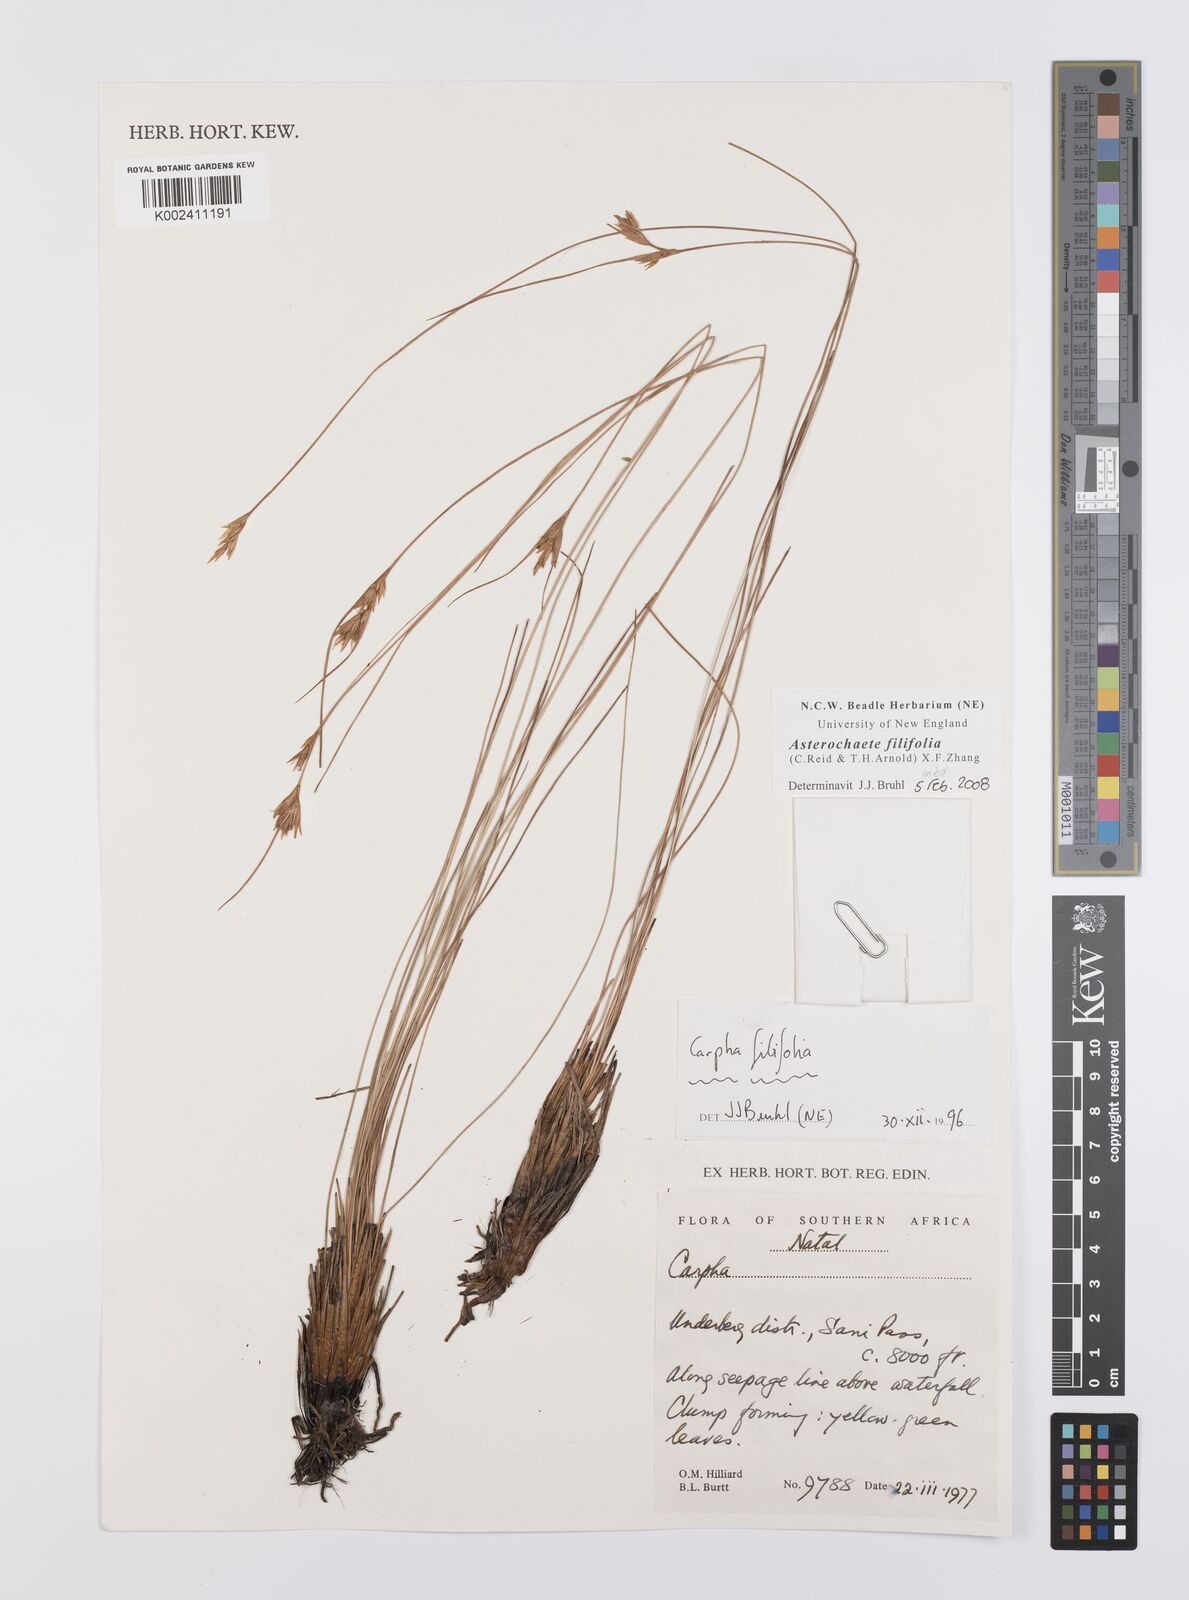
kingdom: Plantae
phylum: Tracheophyta
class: Liliopsida
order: Poales
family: Cyperaceae
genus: Carpha
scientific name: Carpha filifolia
